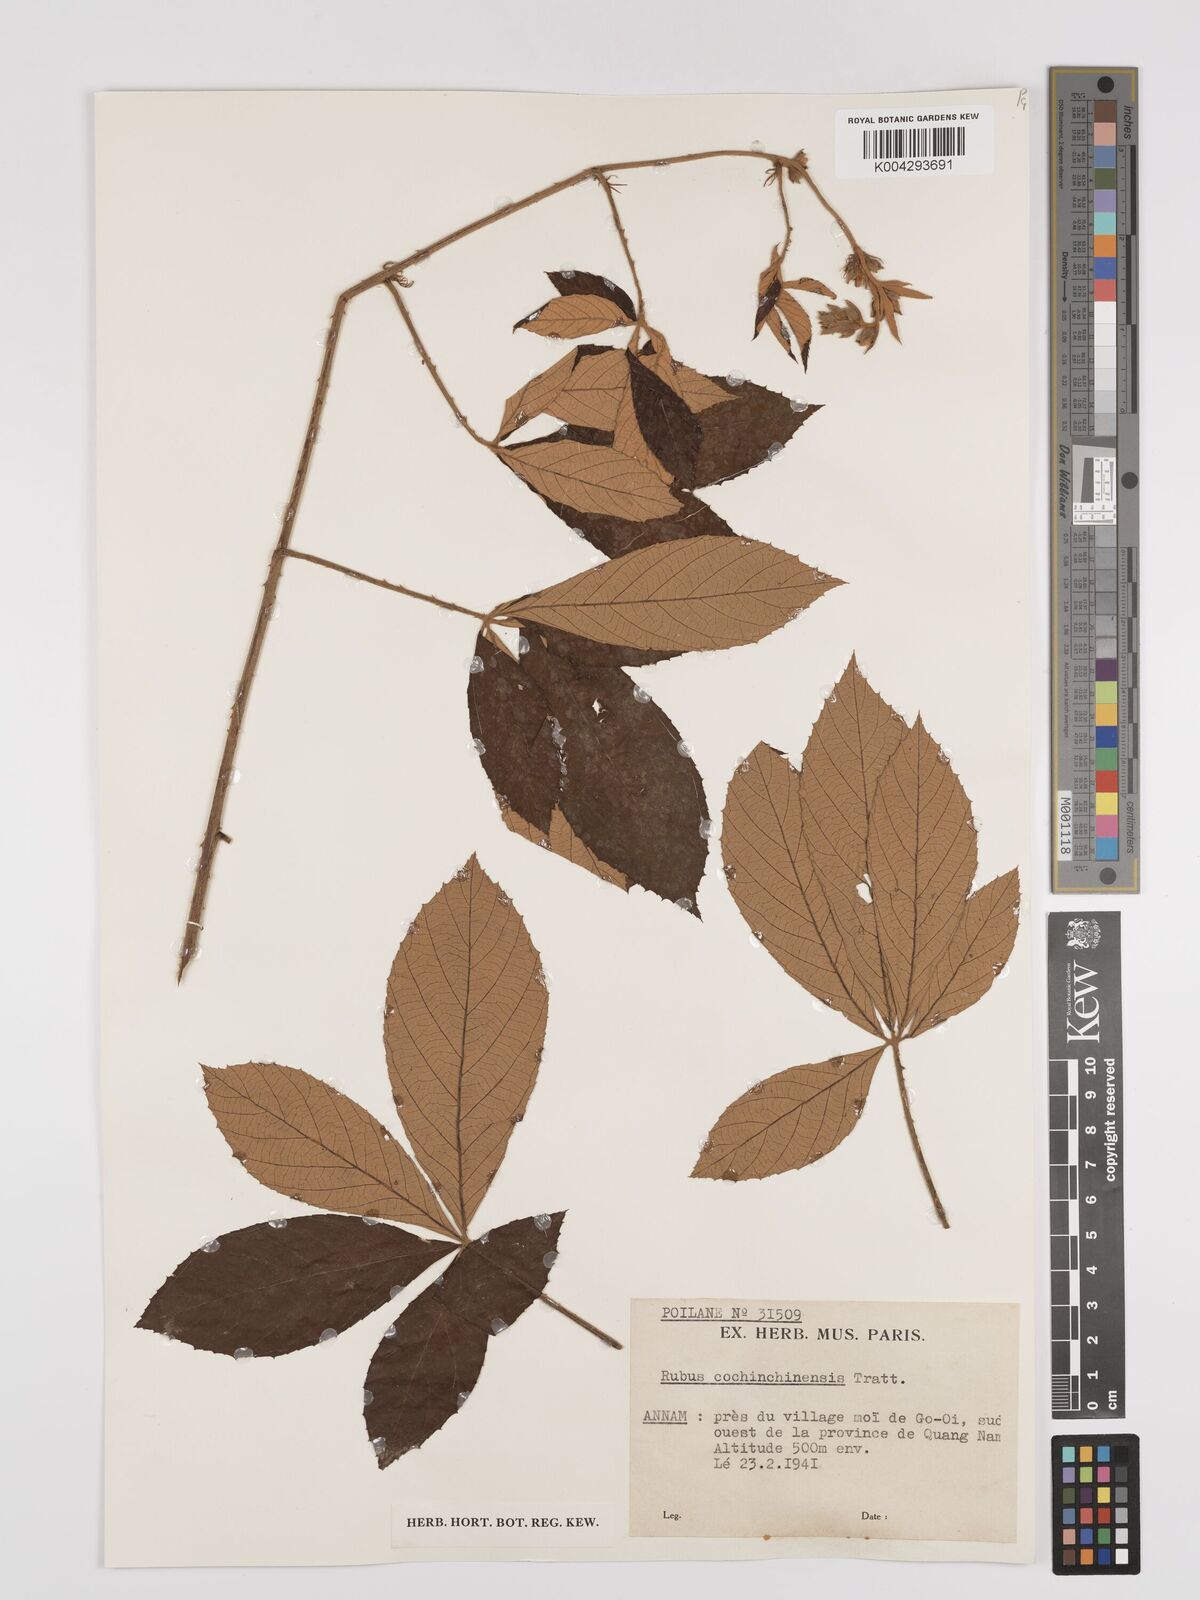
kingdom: Plantae
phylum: Tracheophyta
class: Magnoliopsida
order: Rosales
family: Rosaceae
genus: Rubus
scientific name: Rubus cochinchinensis
